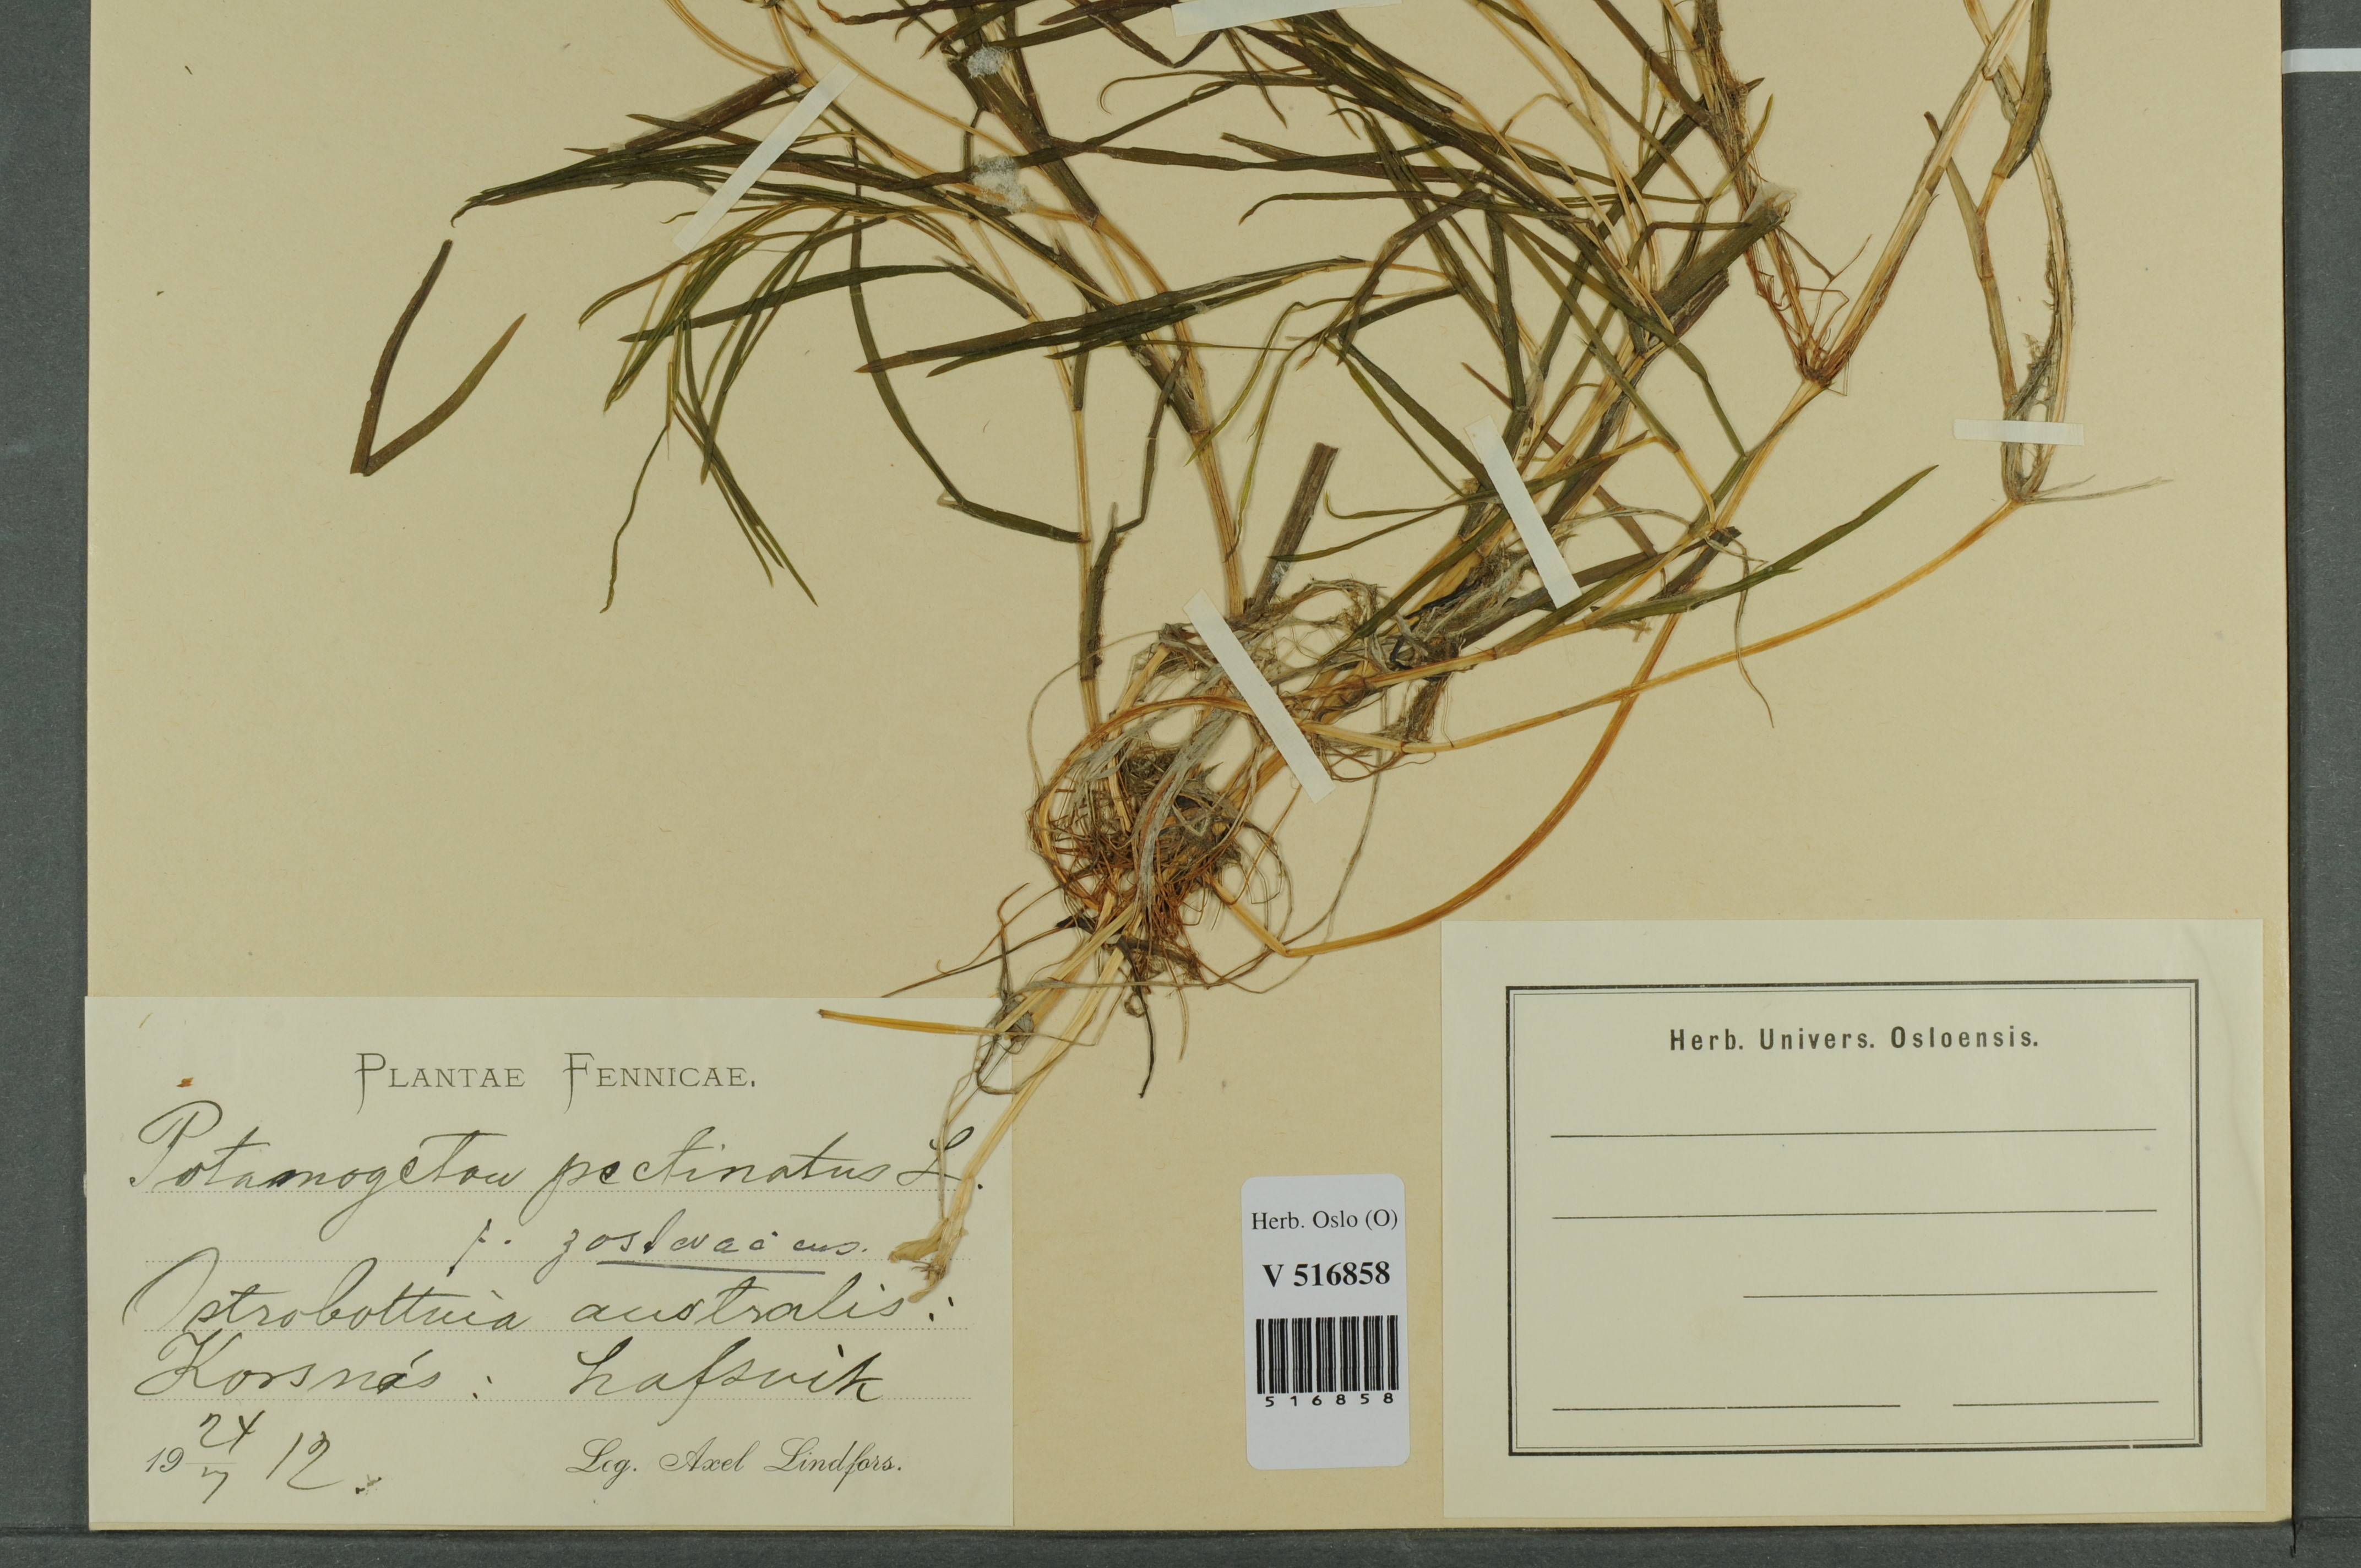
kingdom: Plantae
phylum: Tracheophyta
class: Liliopsida
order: Alismatales
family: Potamogetonaceae
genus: Stuckenia
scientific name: Stuckenia pectinata
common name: Sago pondweed
